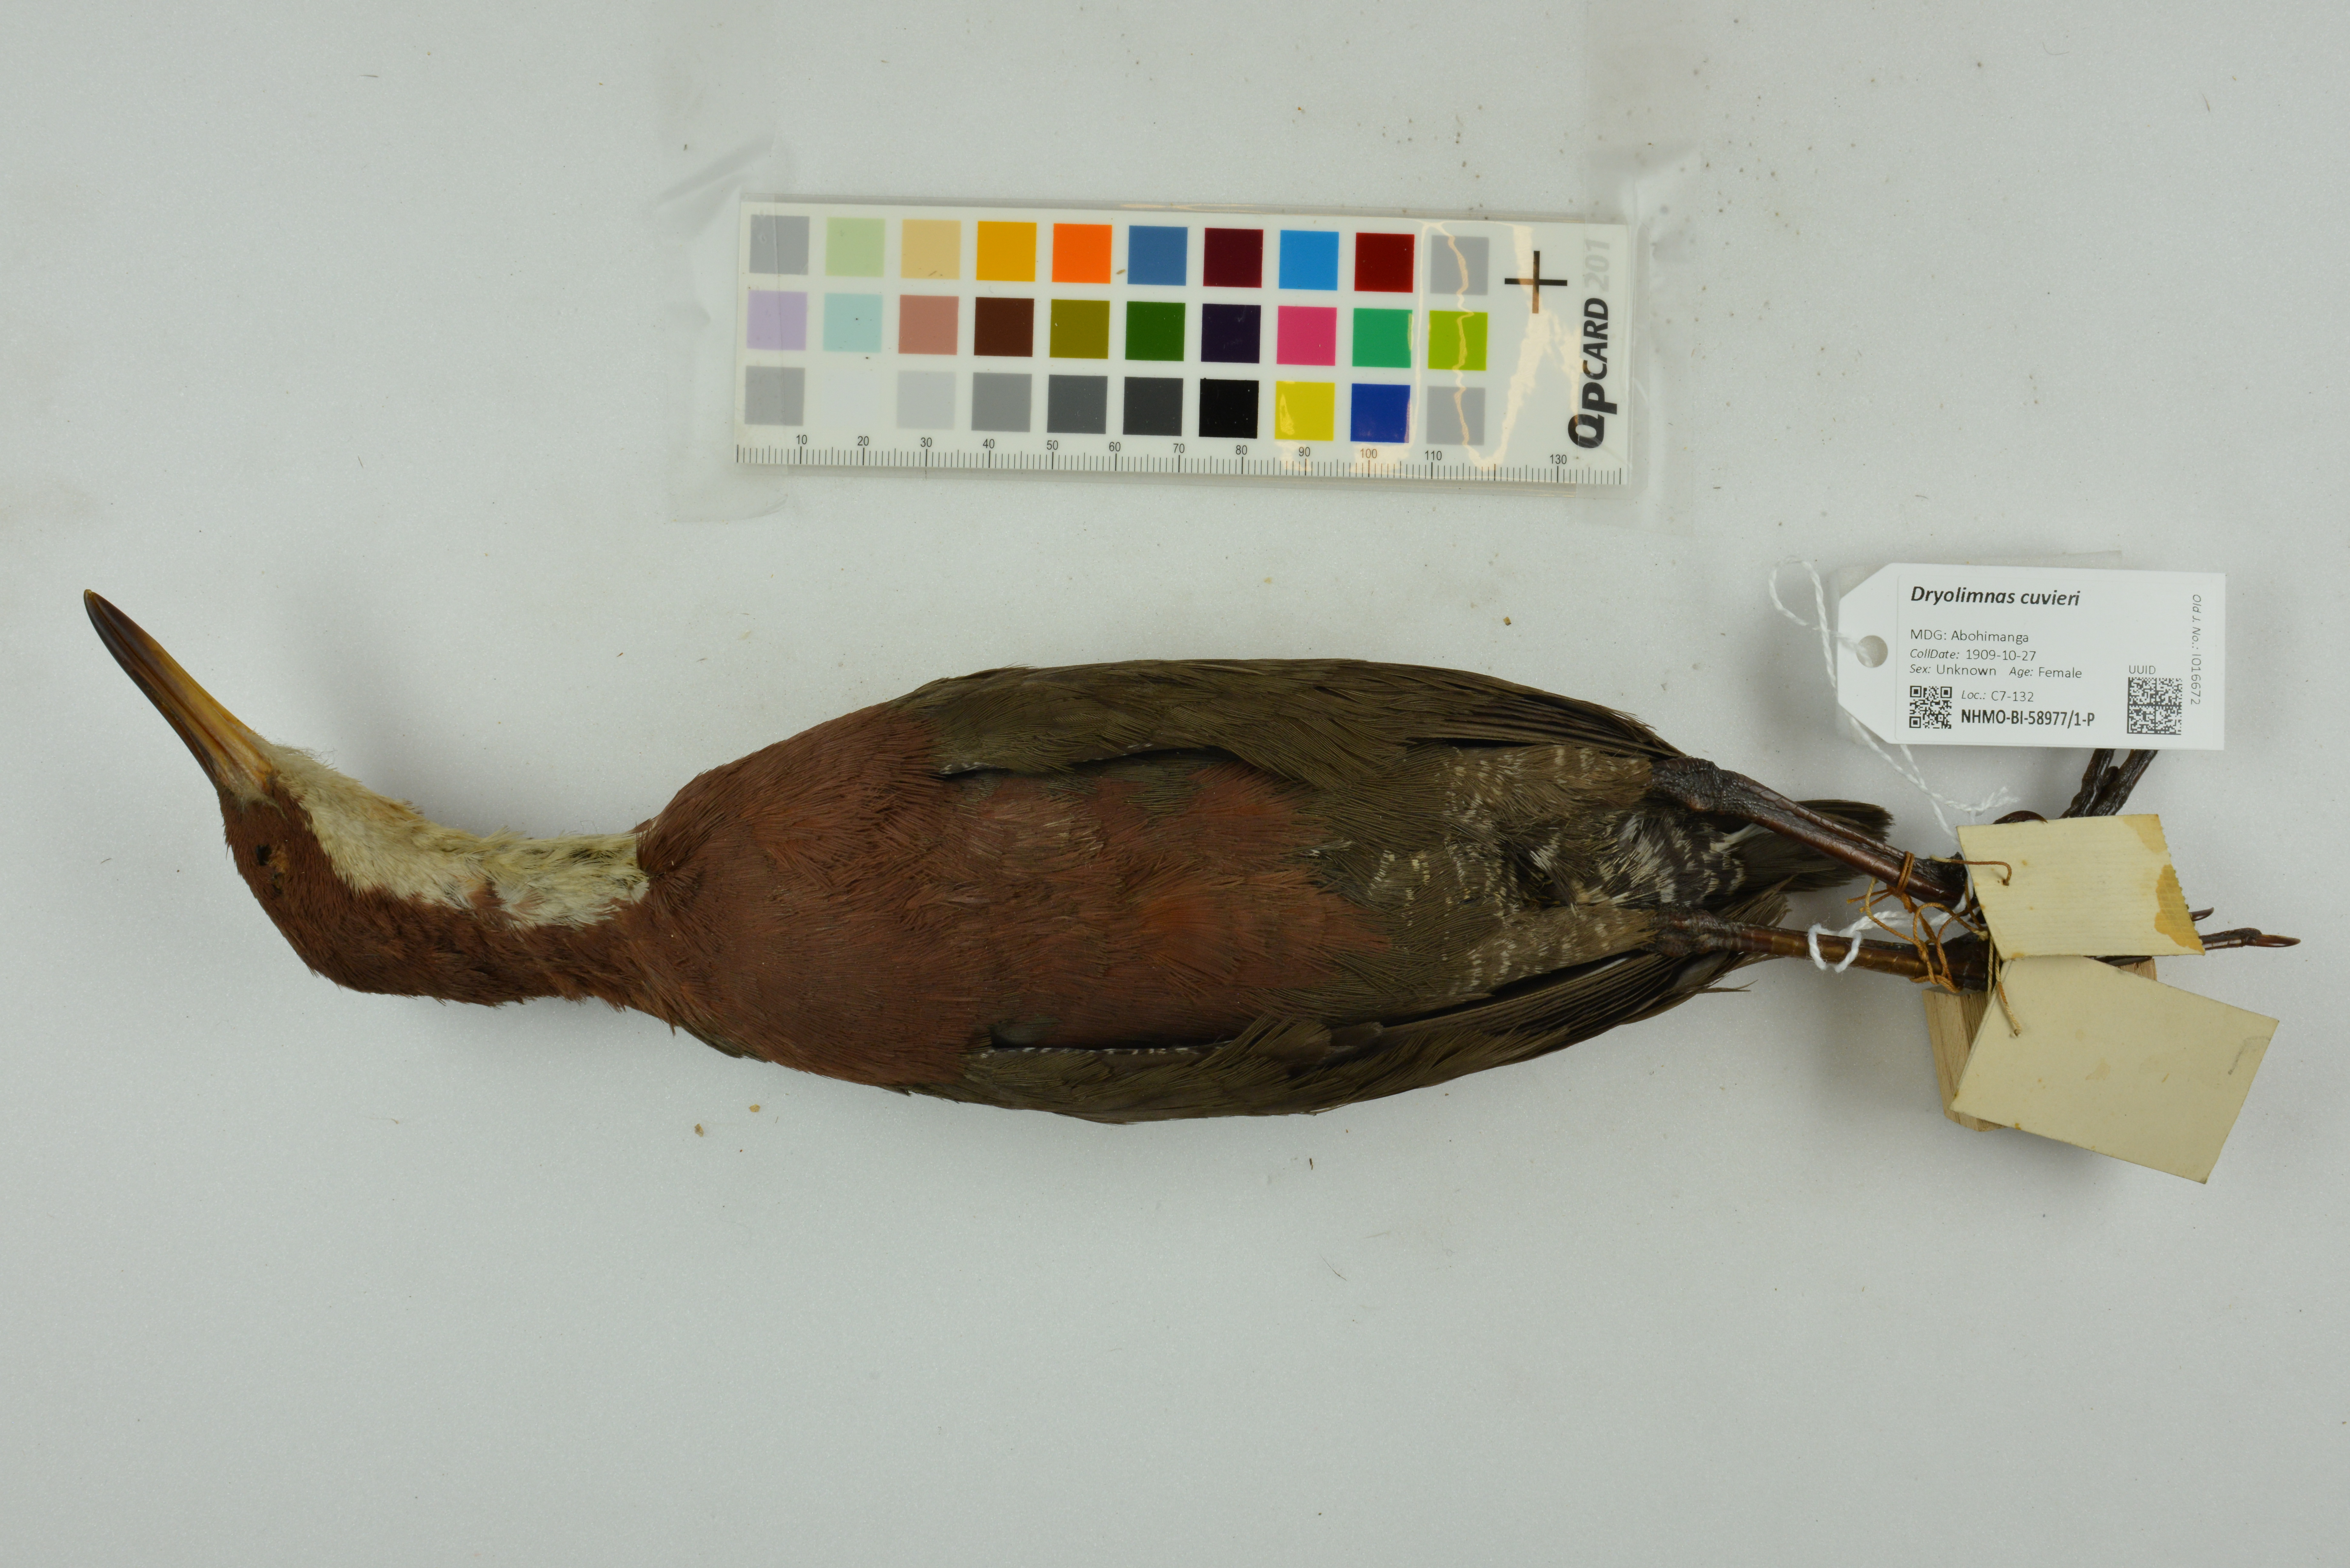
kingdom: Animalia
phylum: Chordata
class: Aves
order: Gruiformes
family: Rallidae
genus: Dryolimnas
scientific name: Dryolimnas cuvieri
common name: White-throated rail
